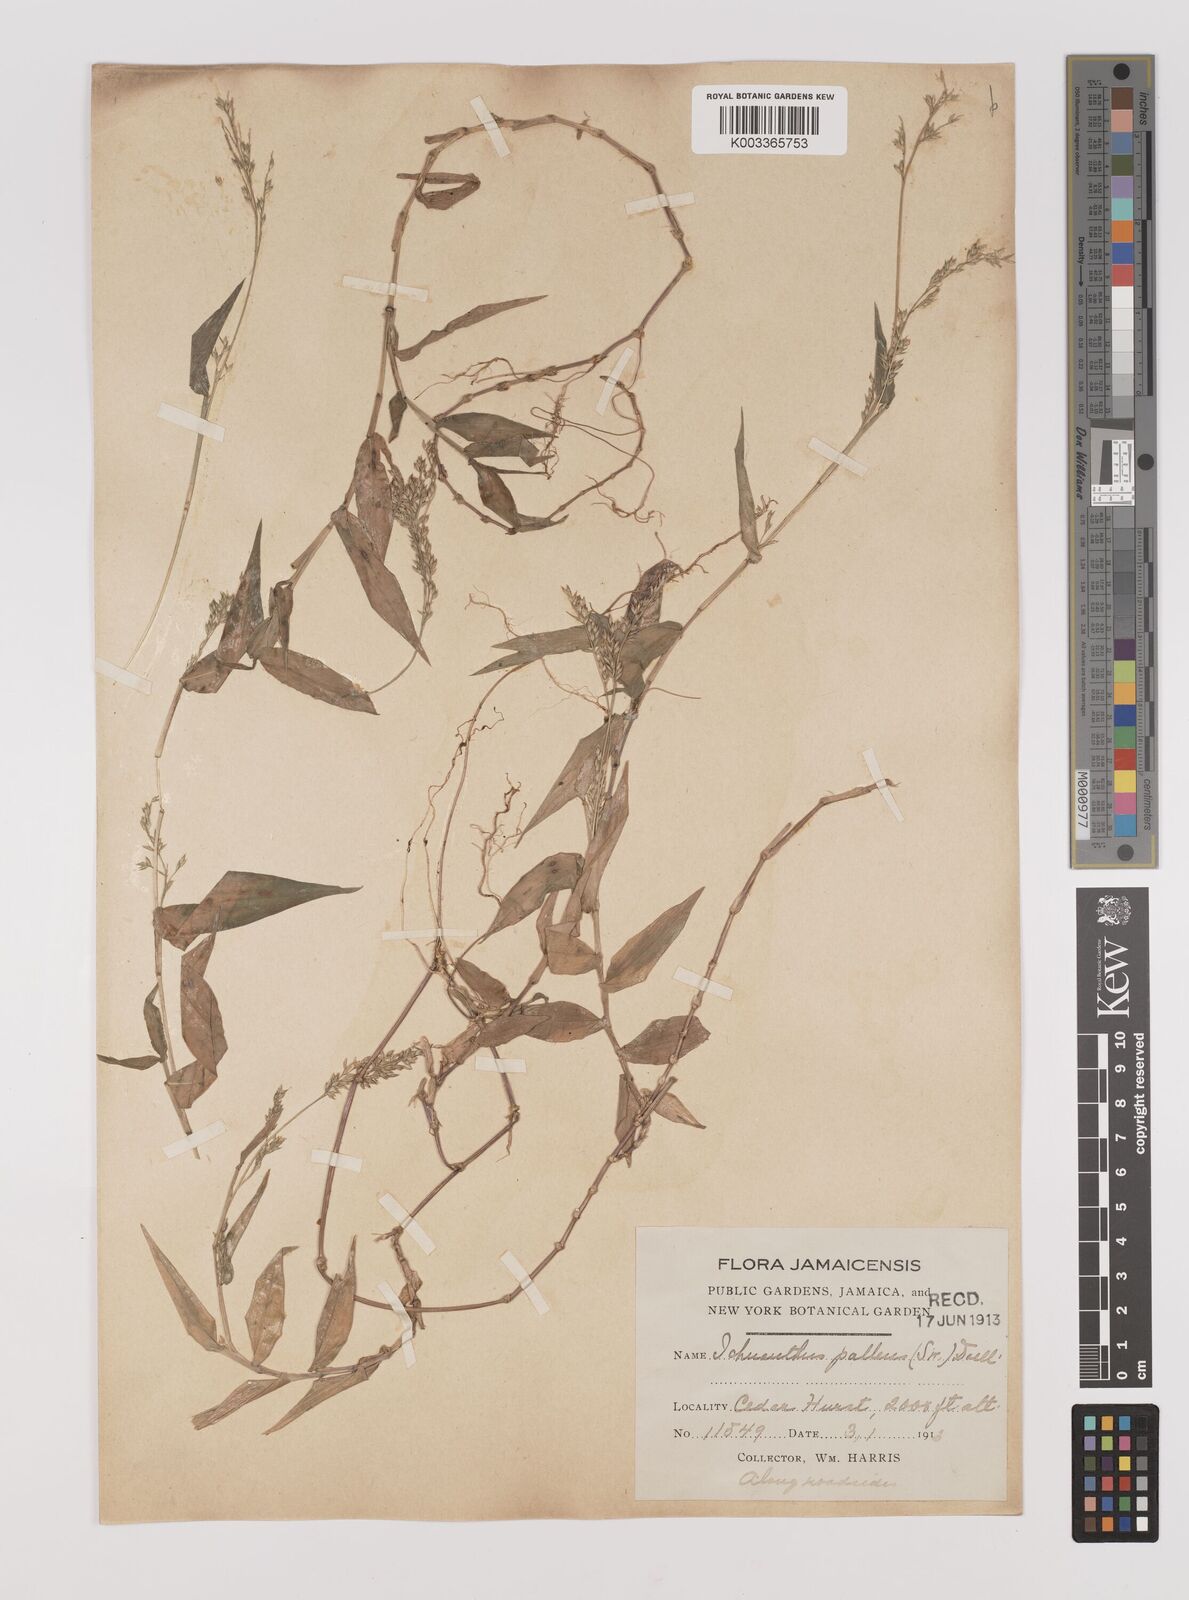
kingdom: Plantae
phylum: Tracheophyta
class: Liliopsida
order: Poales
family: Poaceae
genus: Ichnanthus
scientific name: Ichnanthus pallens
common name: Water grass
